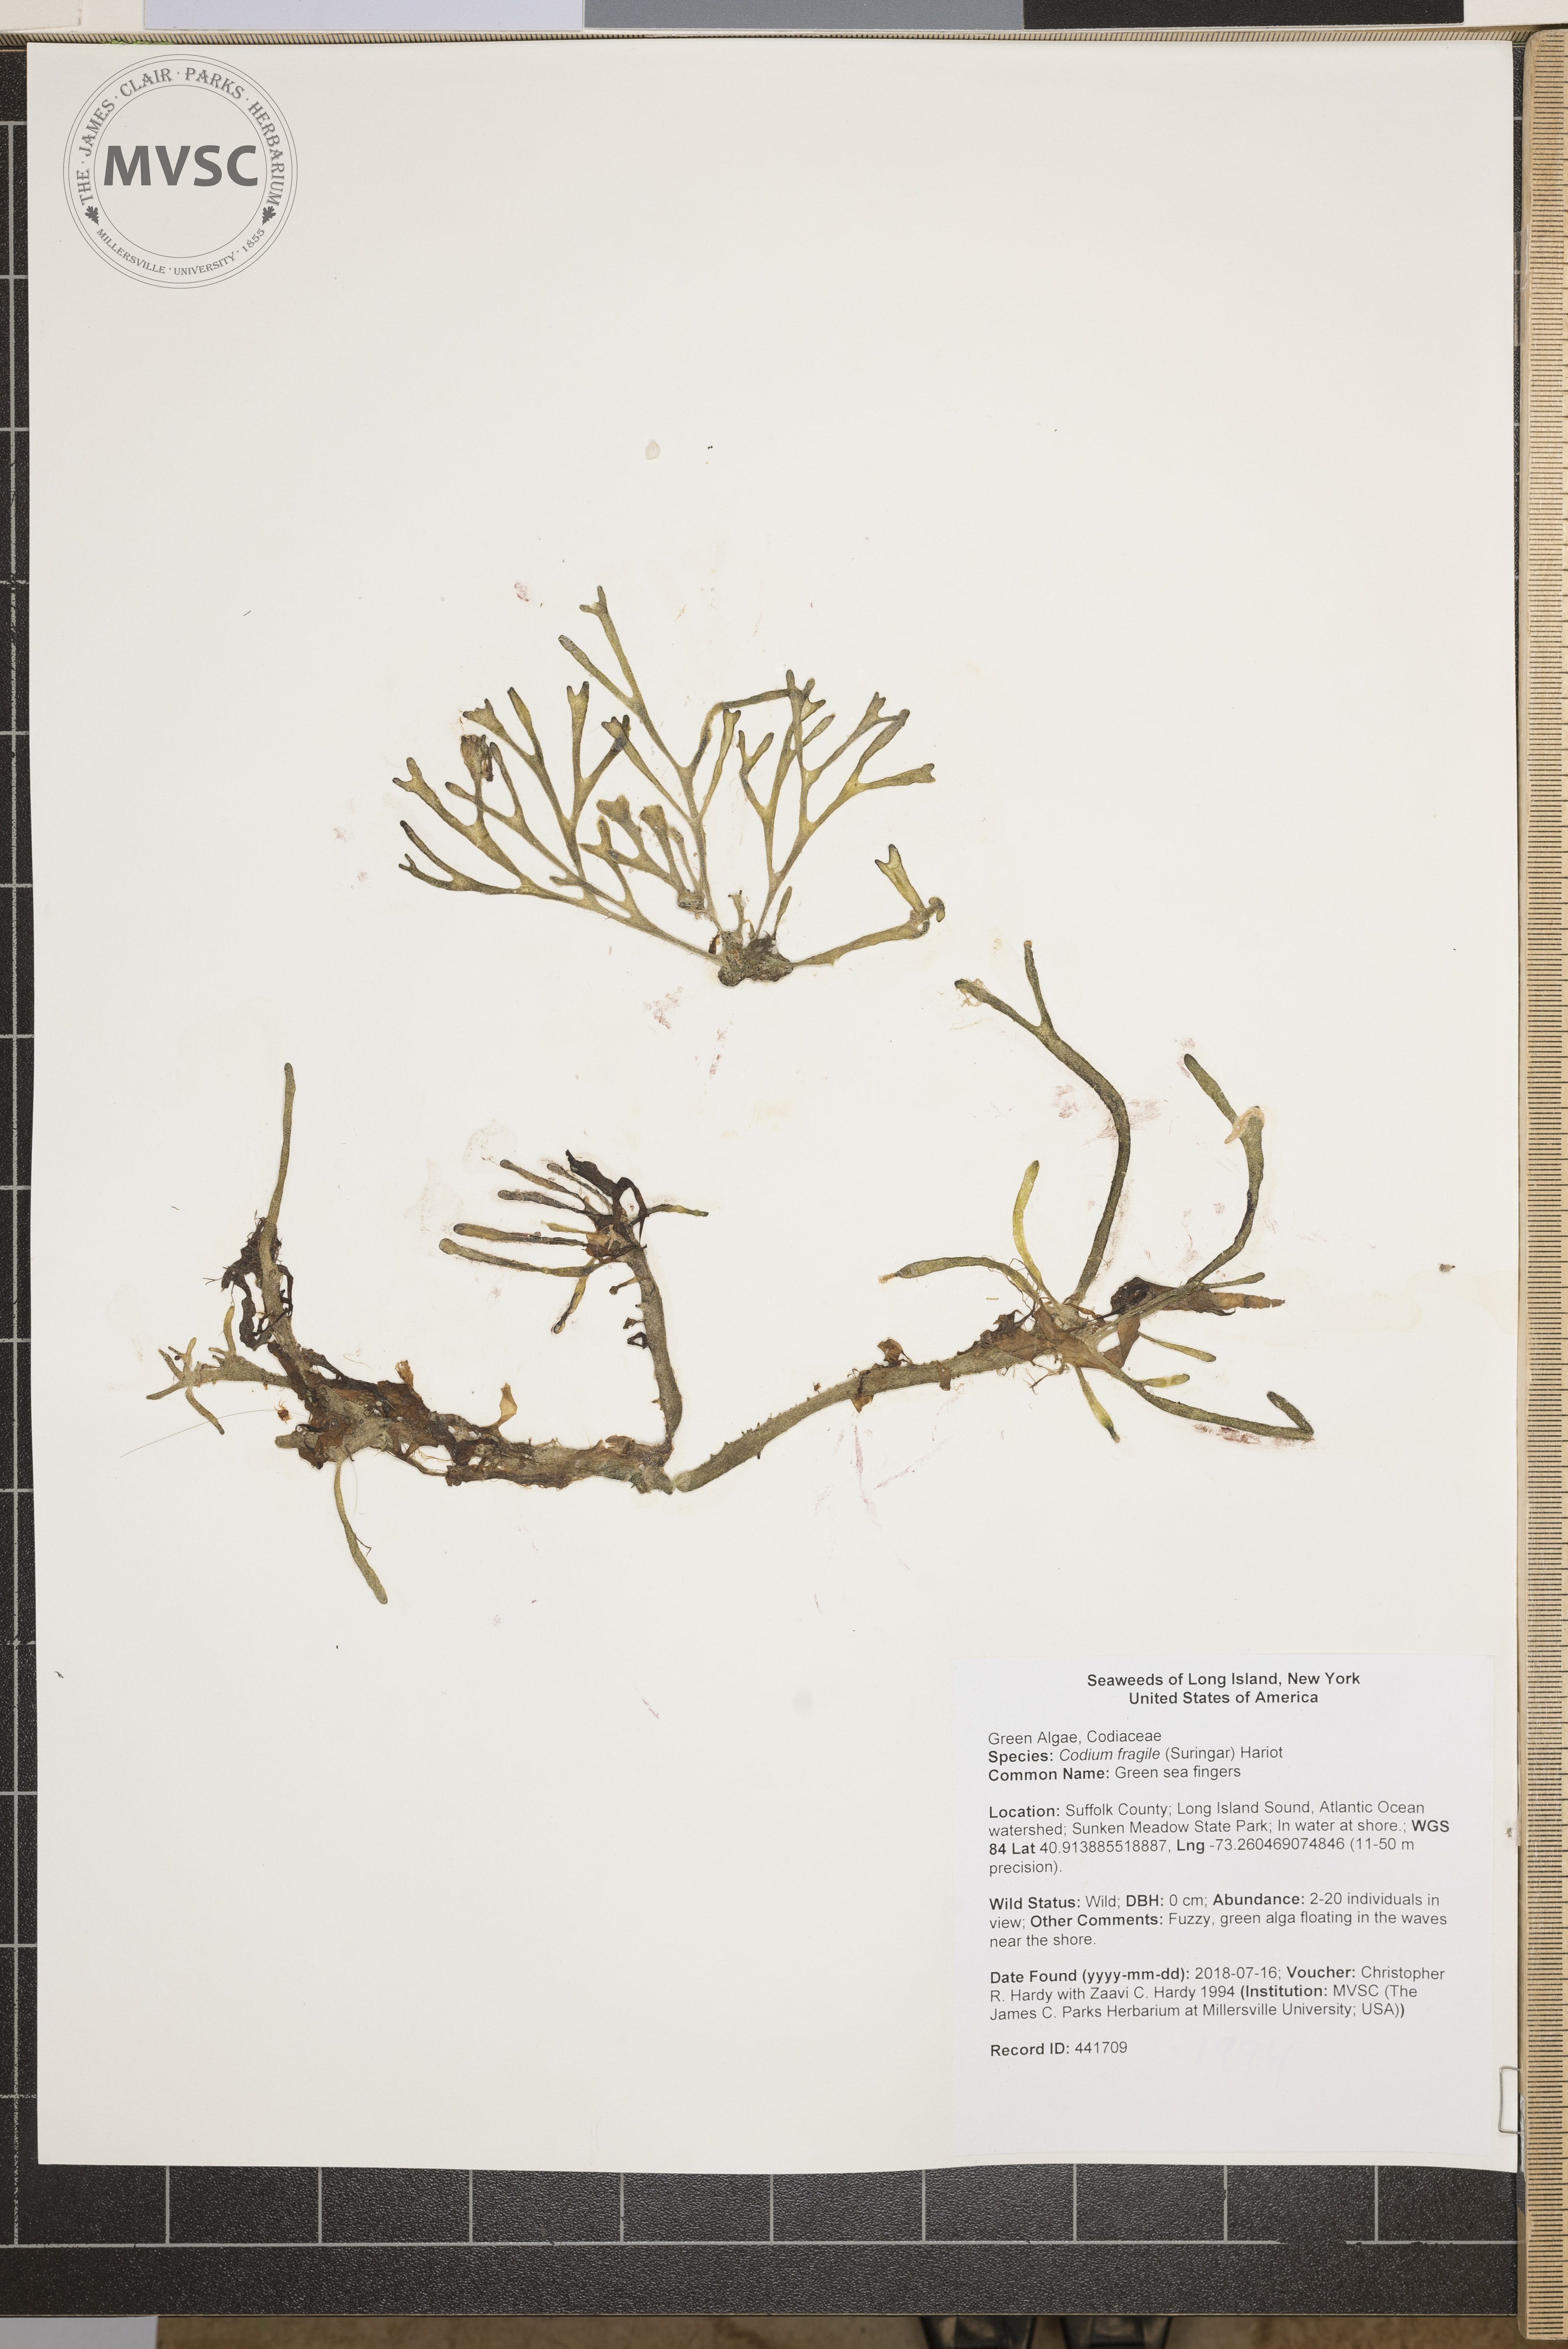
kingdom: Plantae
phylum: Chlorophyta
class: Ulvophyceae
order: Bryopsidales
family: Codiaceae
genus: Codium
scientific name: Codium fragile
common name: Green sea fingers
